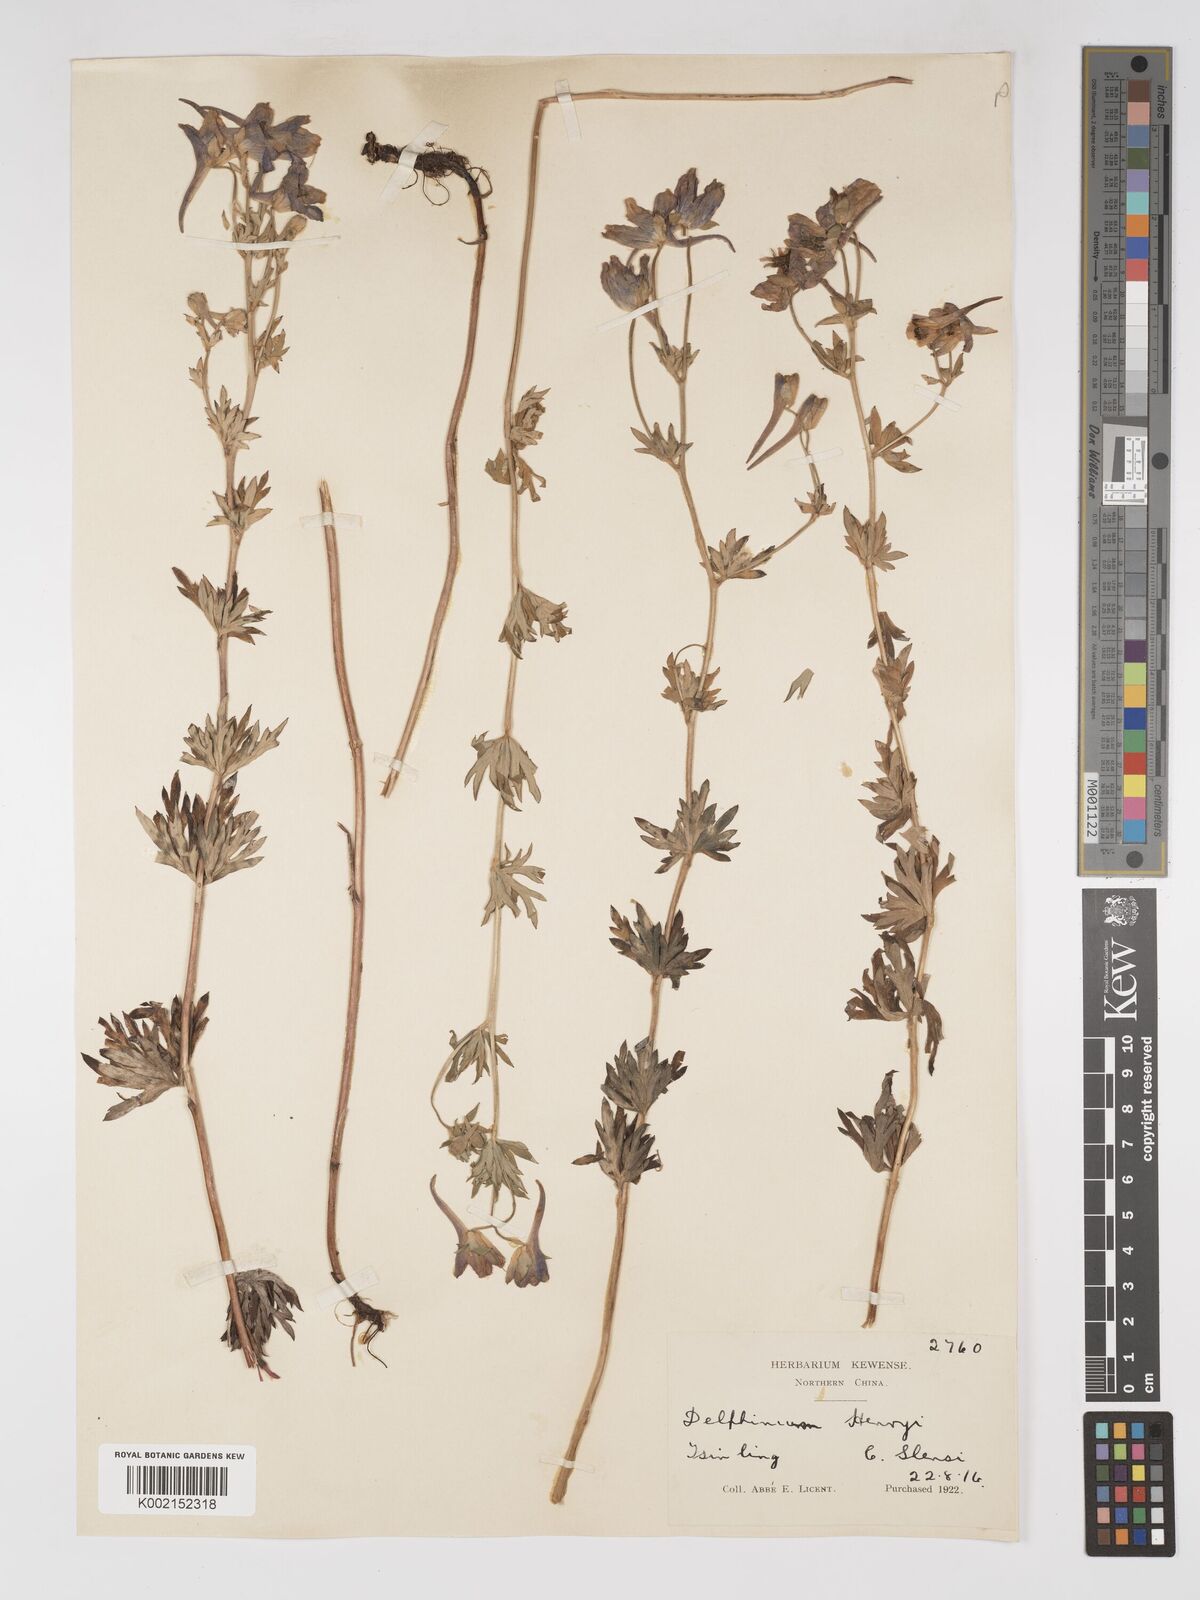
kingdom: Plantae
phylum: Tracheophyta
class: Magnoliopsida
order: Ranunculales
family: Ranunculaceae
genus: Delphinium
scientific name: Delphinium henryi
